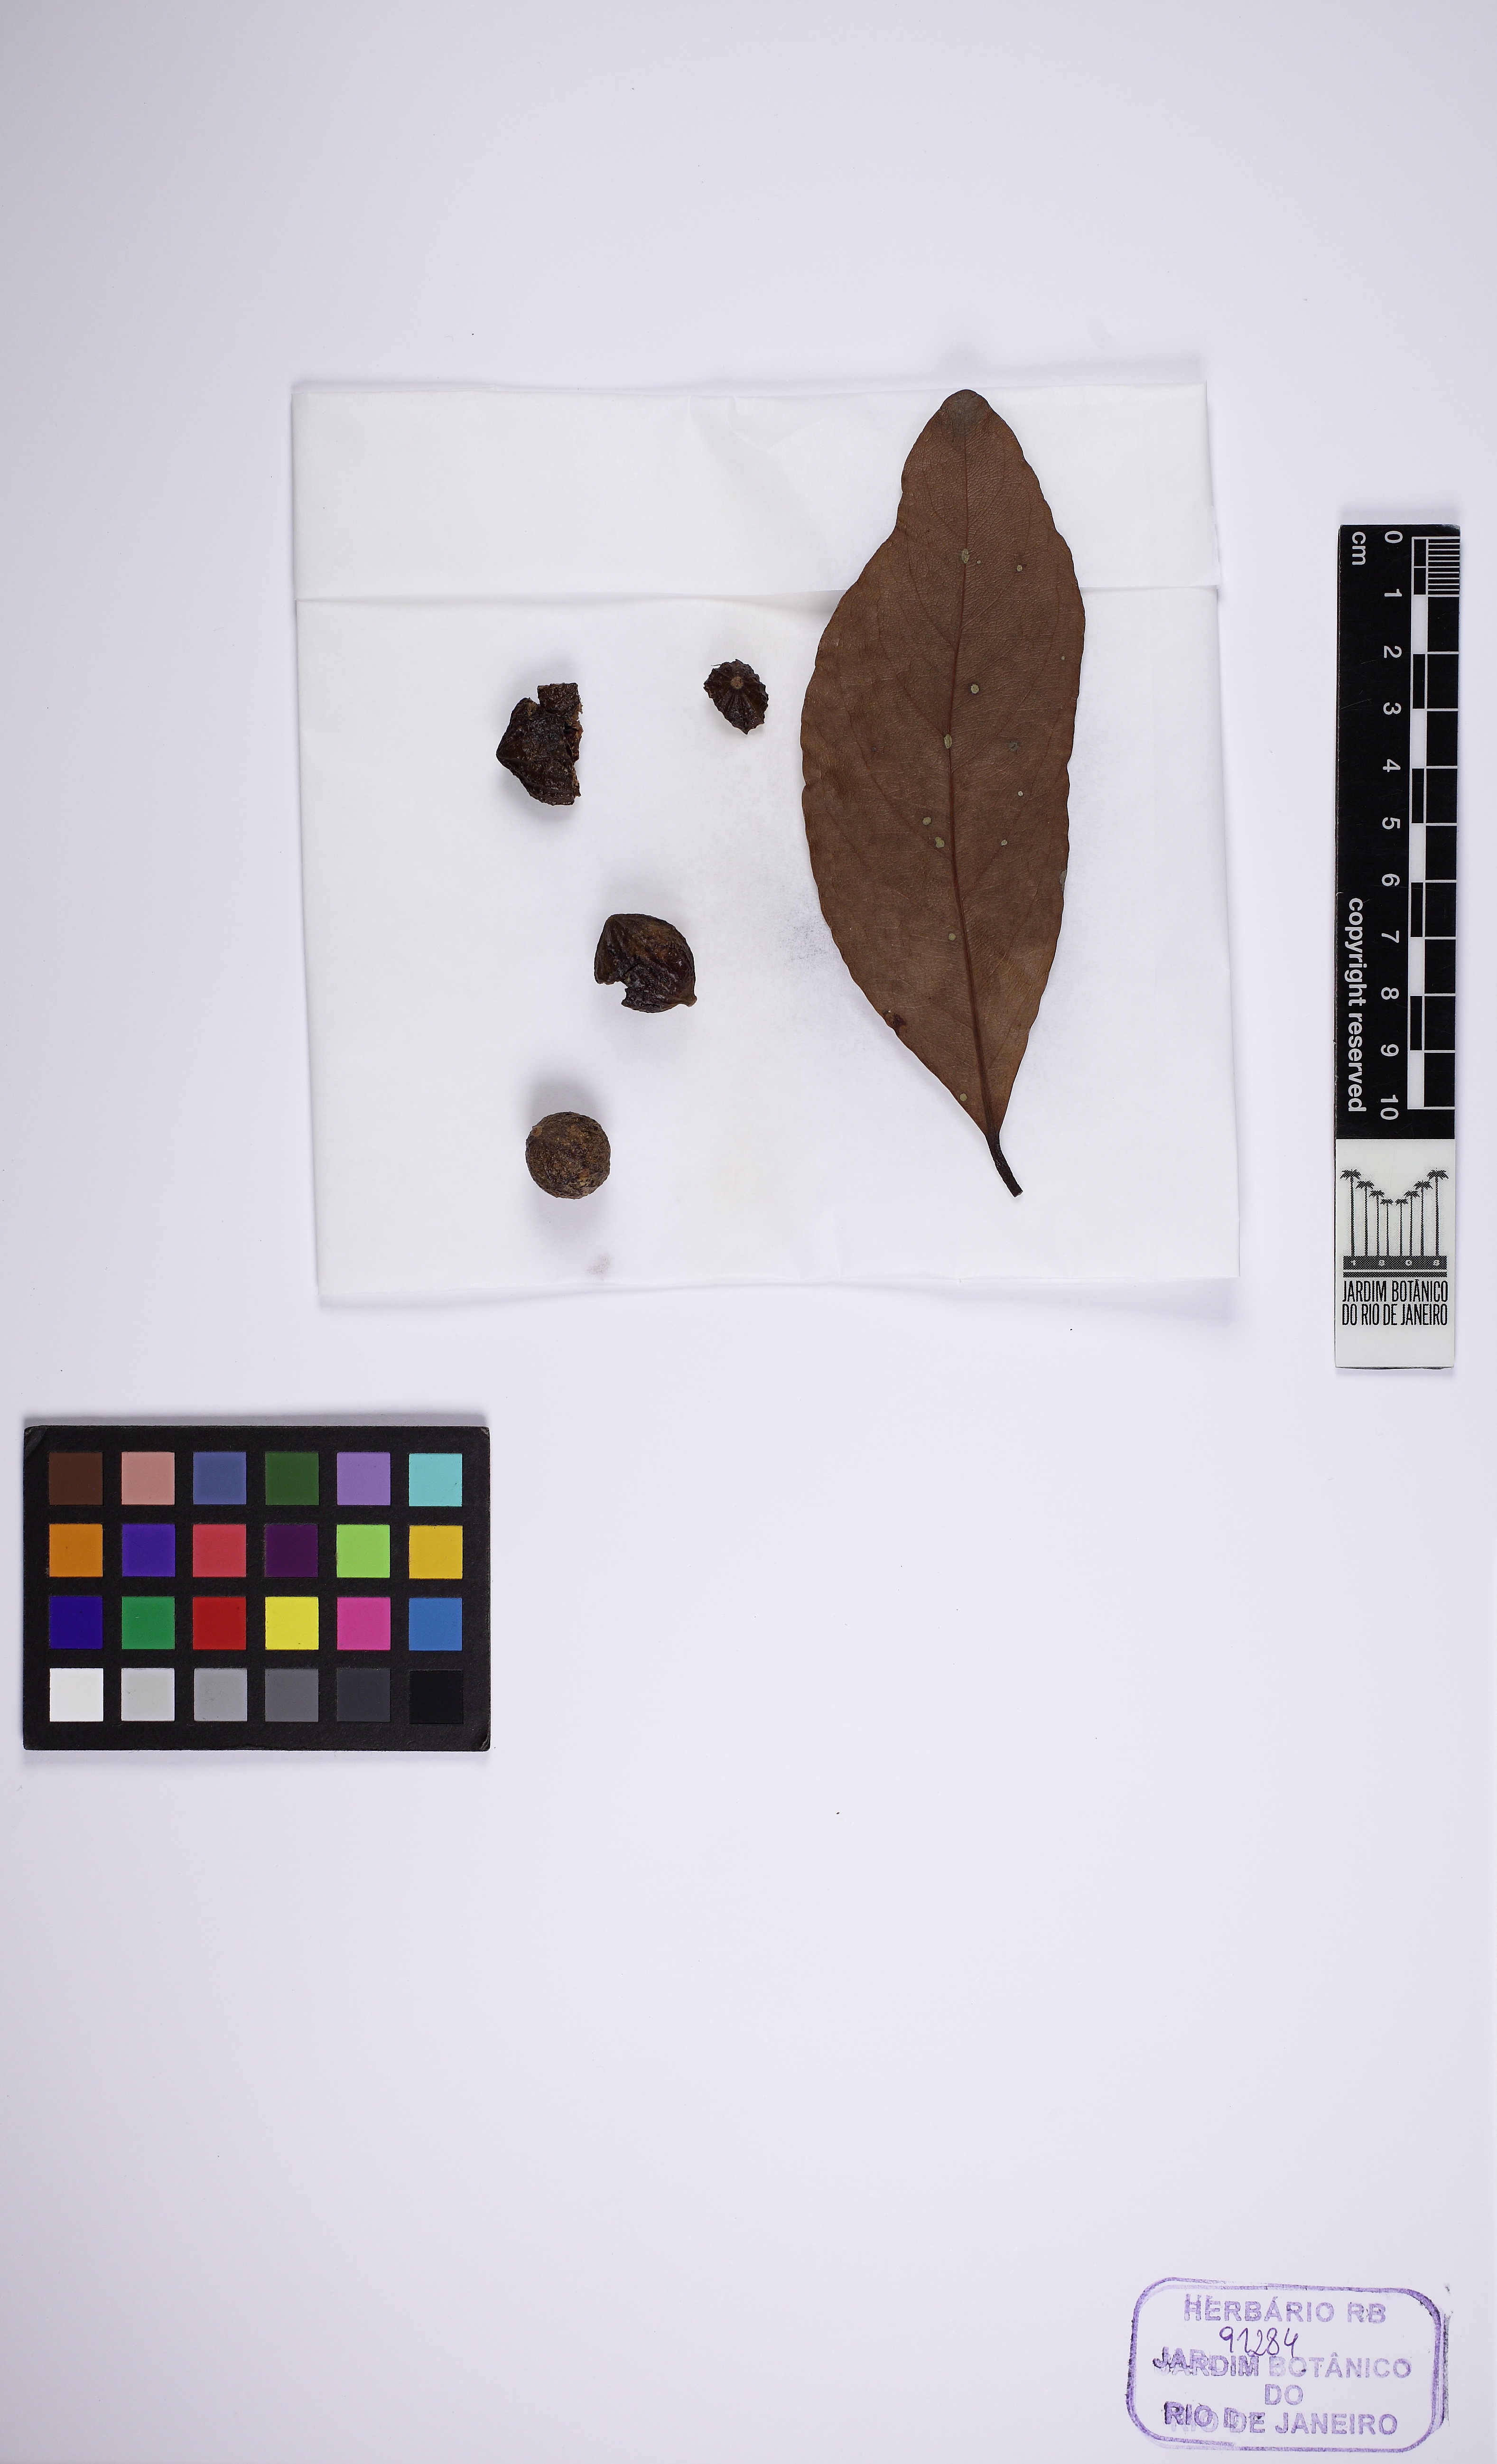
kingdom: Plantae
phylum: Tracheophyta
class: Magnoliopsida
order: Laurales
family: Lauraceae
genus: Cryptocarya
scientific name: Cryptocarya riedeliana
